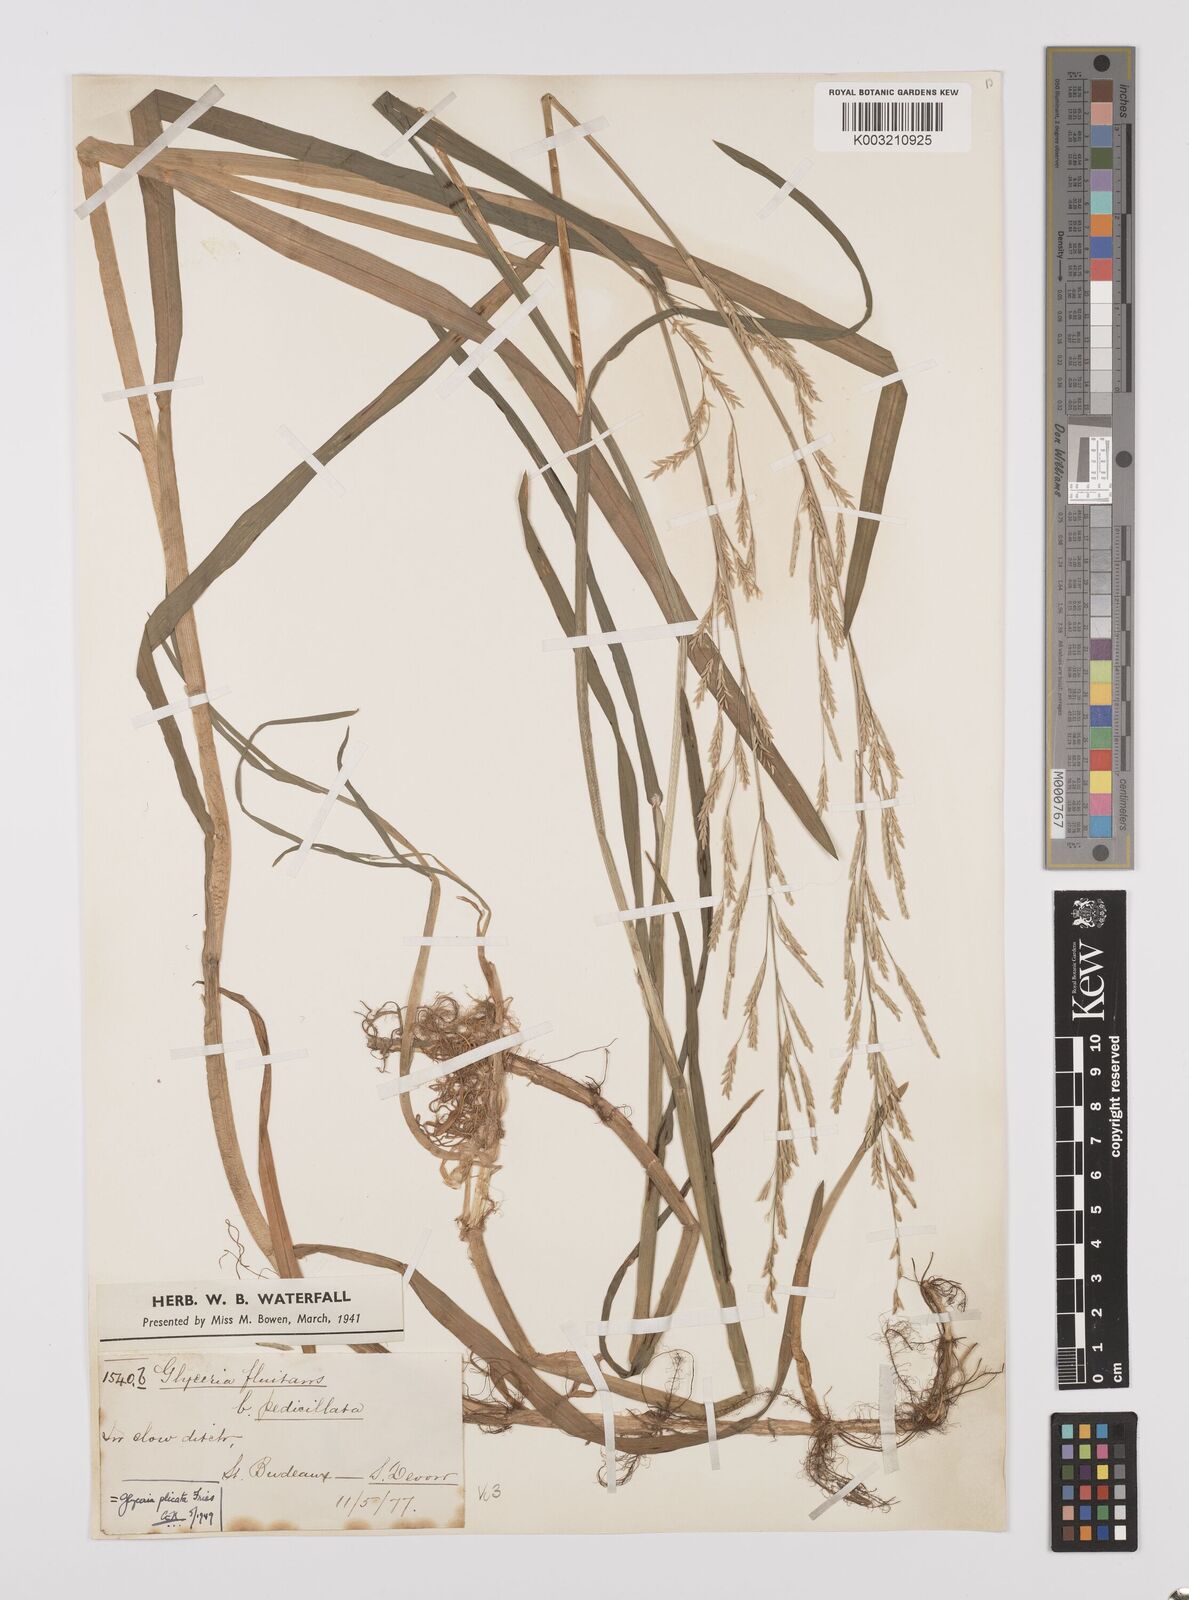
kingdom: Plantae
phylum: Tracheophyta
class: Liliopsida
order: Poales
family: Poaceae
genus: Glyceria
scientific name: Glyceria notata
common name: Plicate sweet-grass
